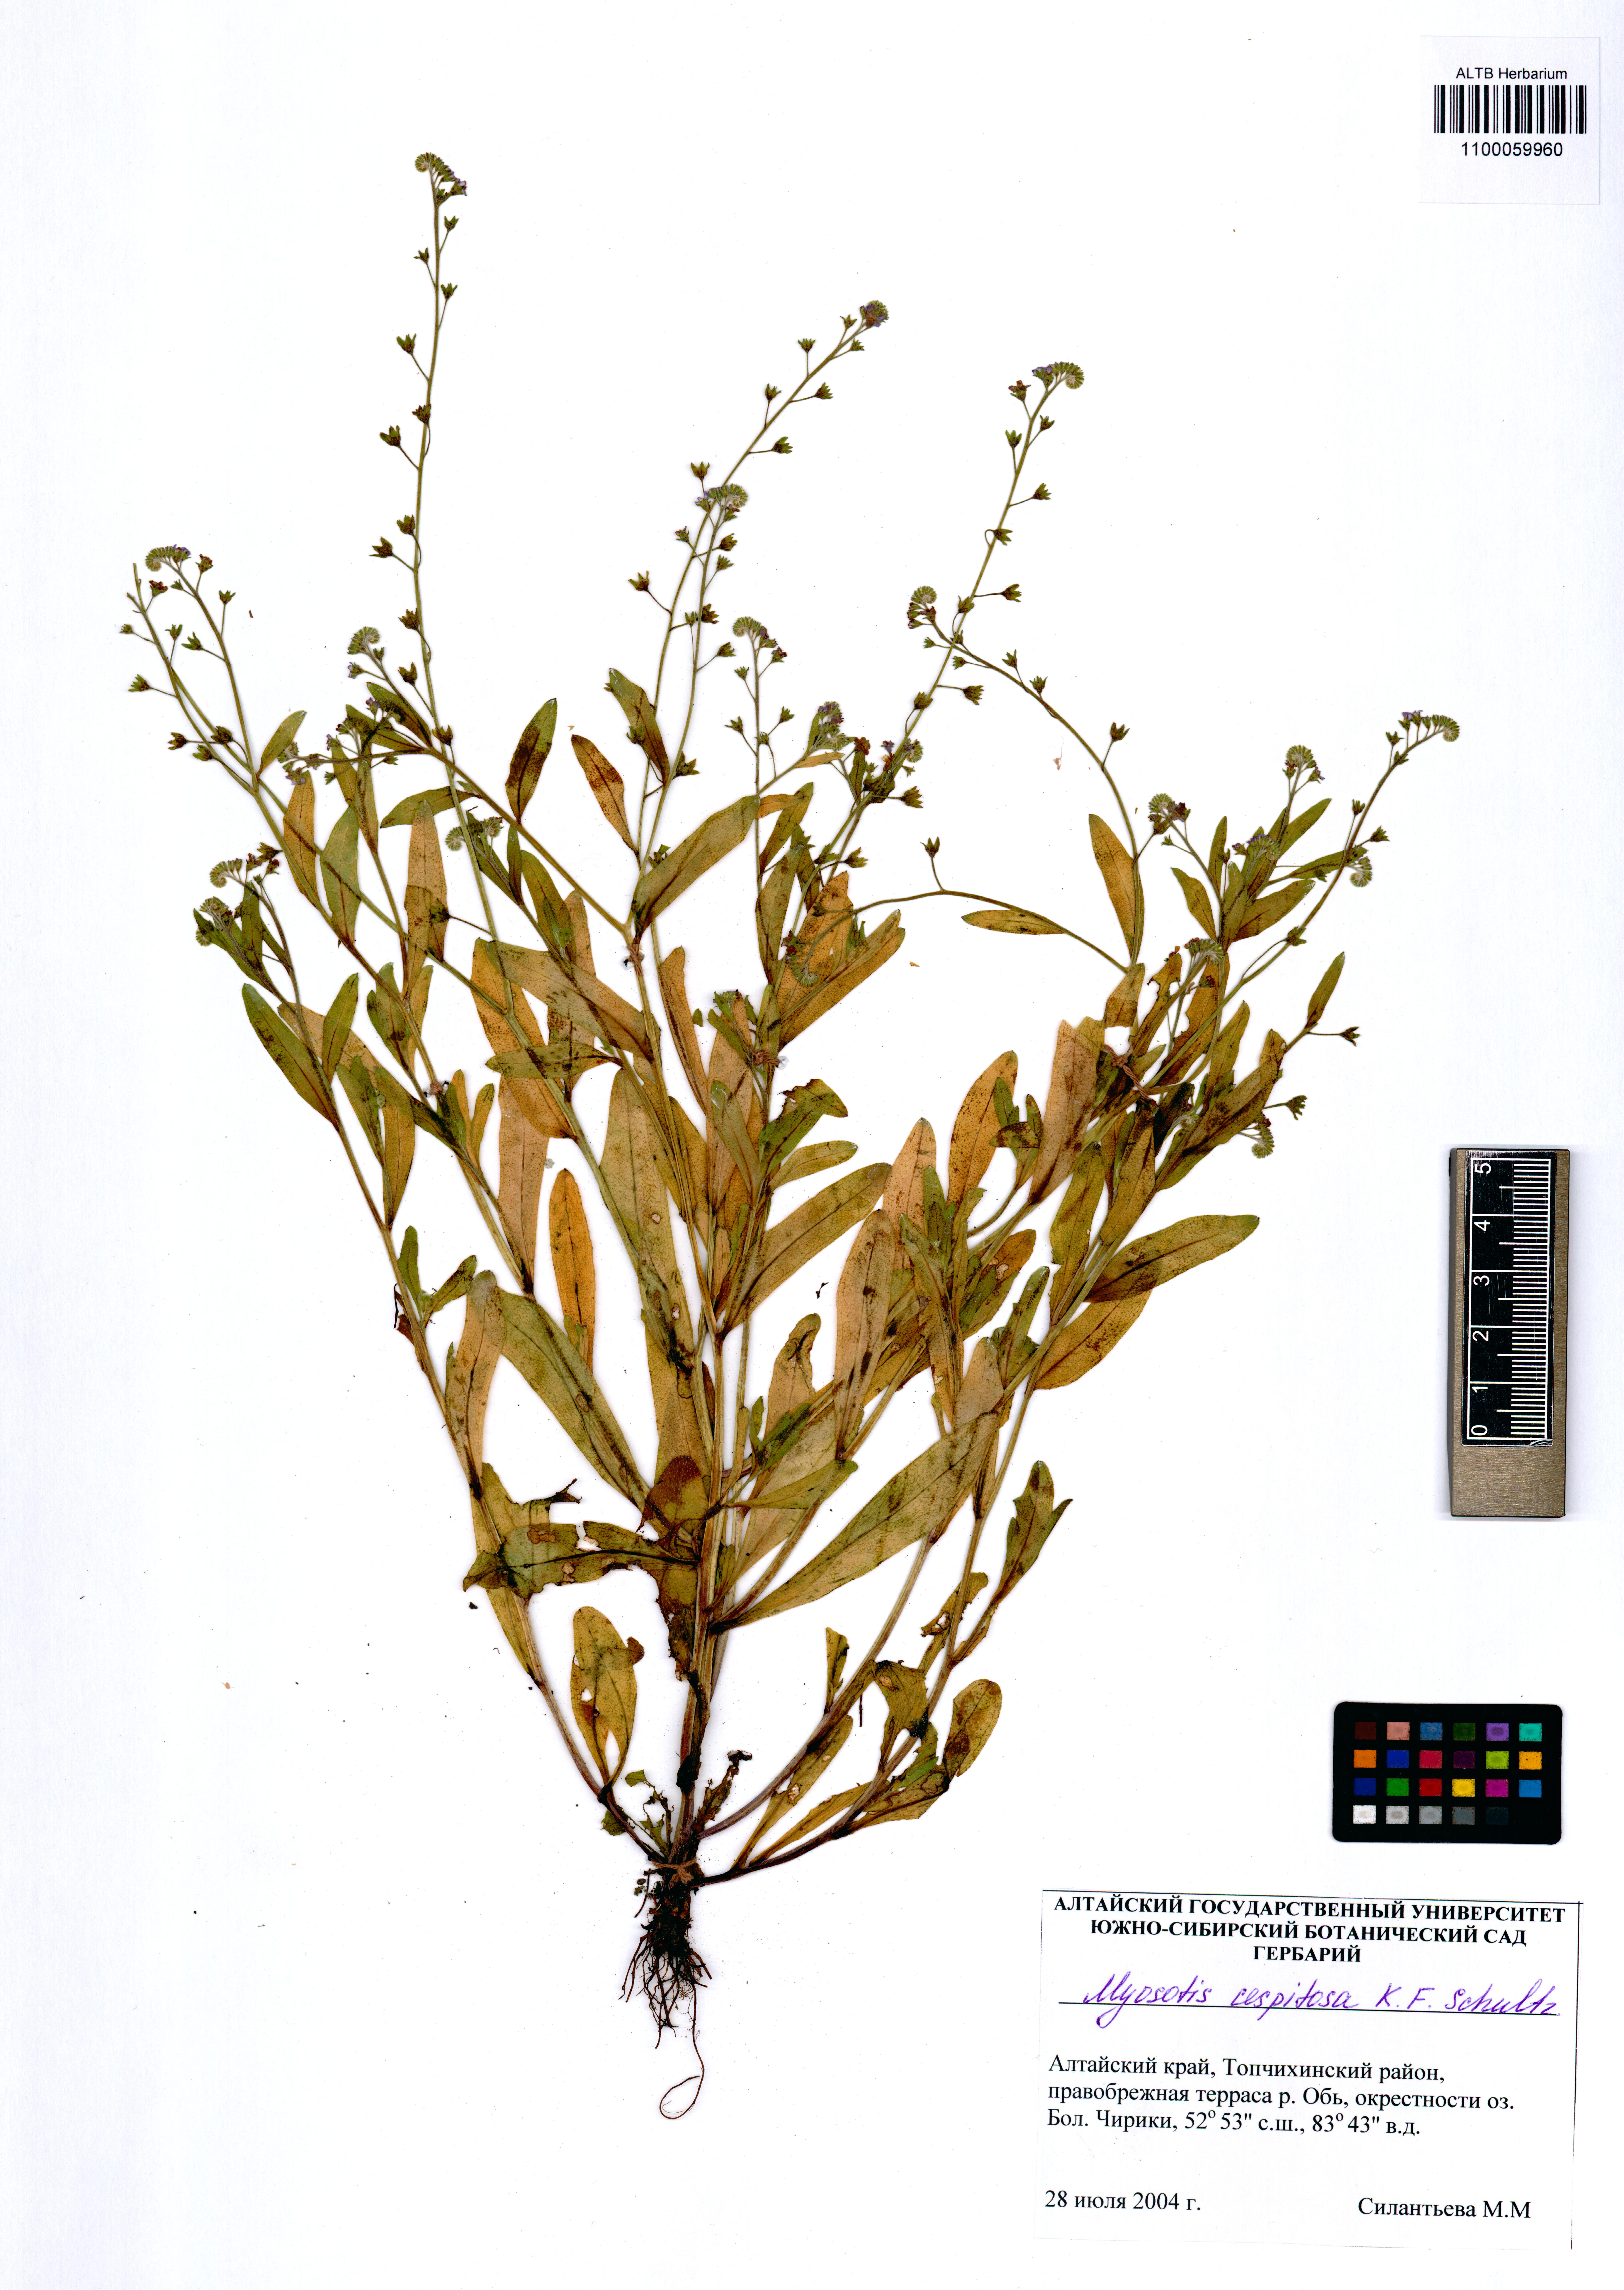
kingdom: Plantae
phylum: Tracheophyta
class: Magnoliopsida
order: Boraginales
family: Boraginaceae
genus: Myosotis
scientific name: Myosotis laxa
